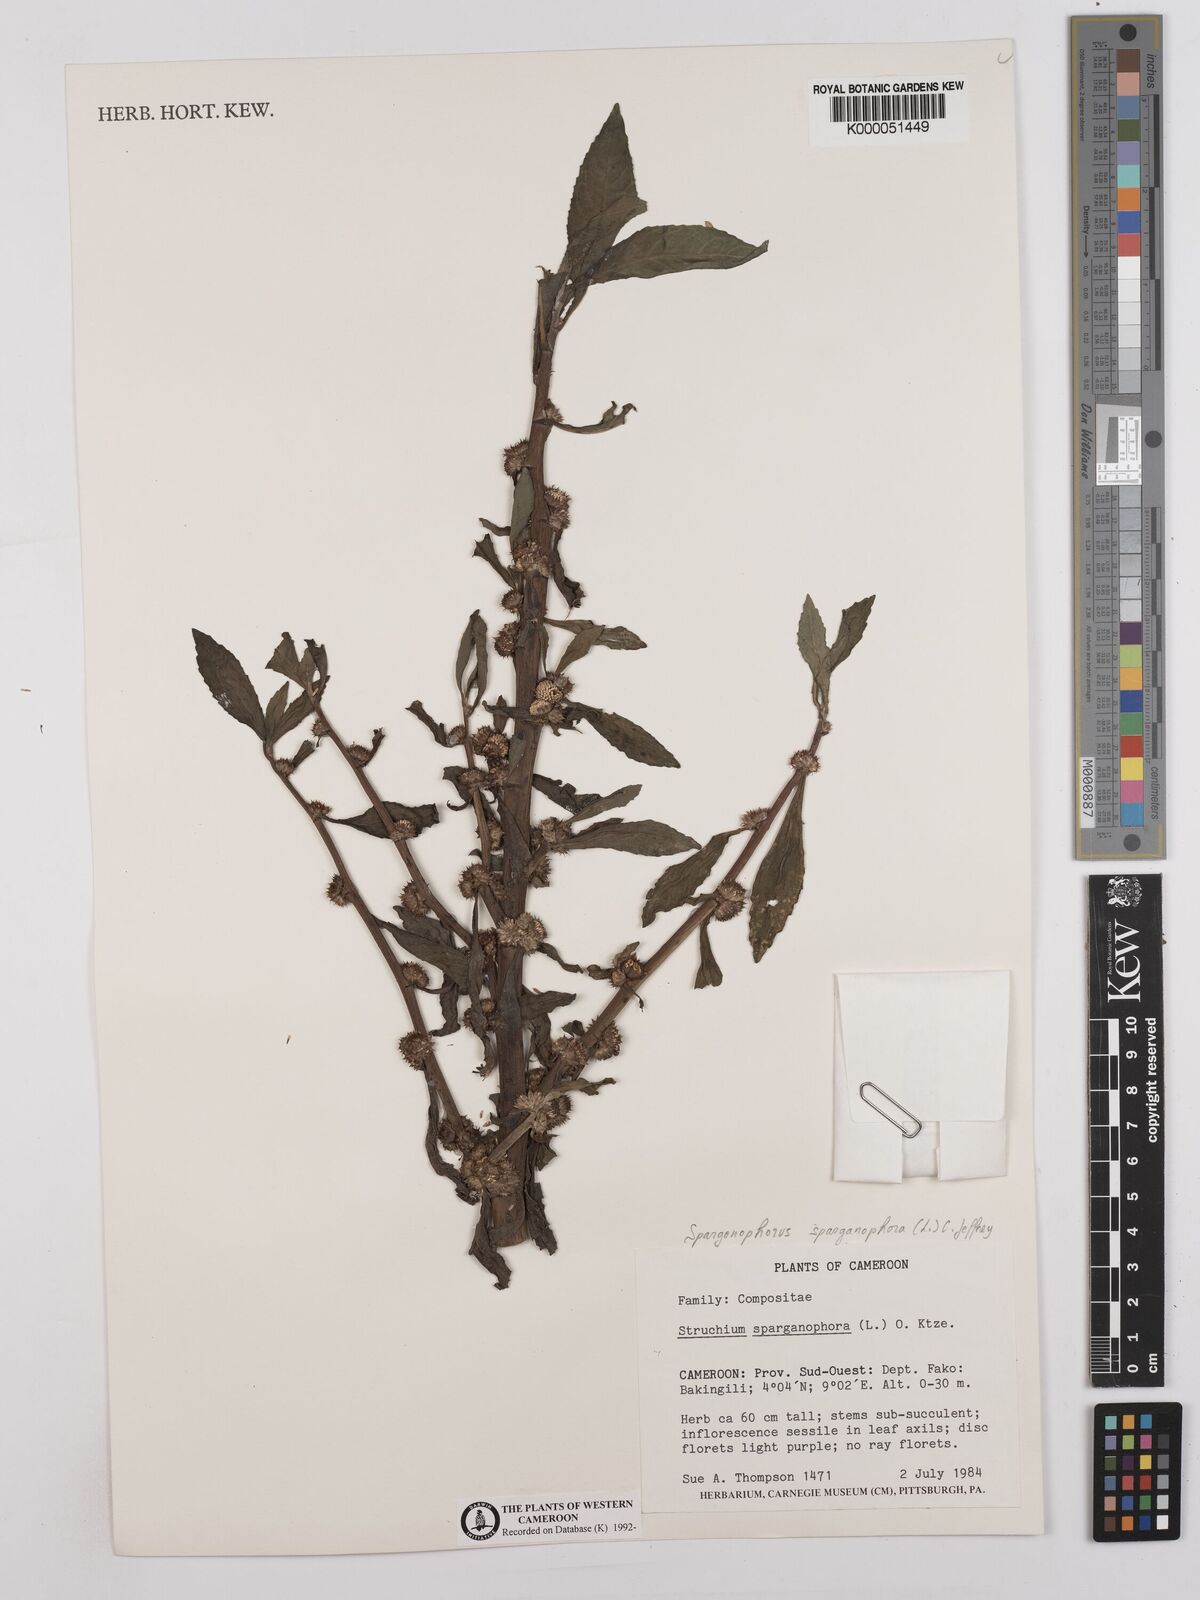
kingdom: Plantae
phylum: Tracheophyta
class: Magnoliopsida
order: Asterales
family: Asteraceae
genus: Struchium
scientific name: Struchium sparganophorum
